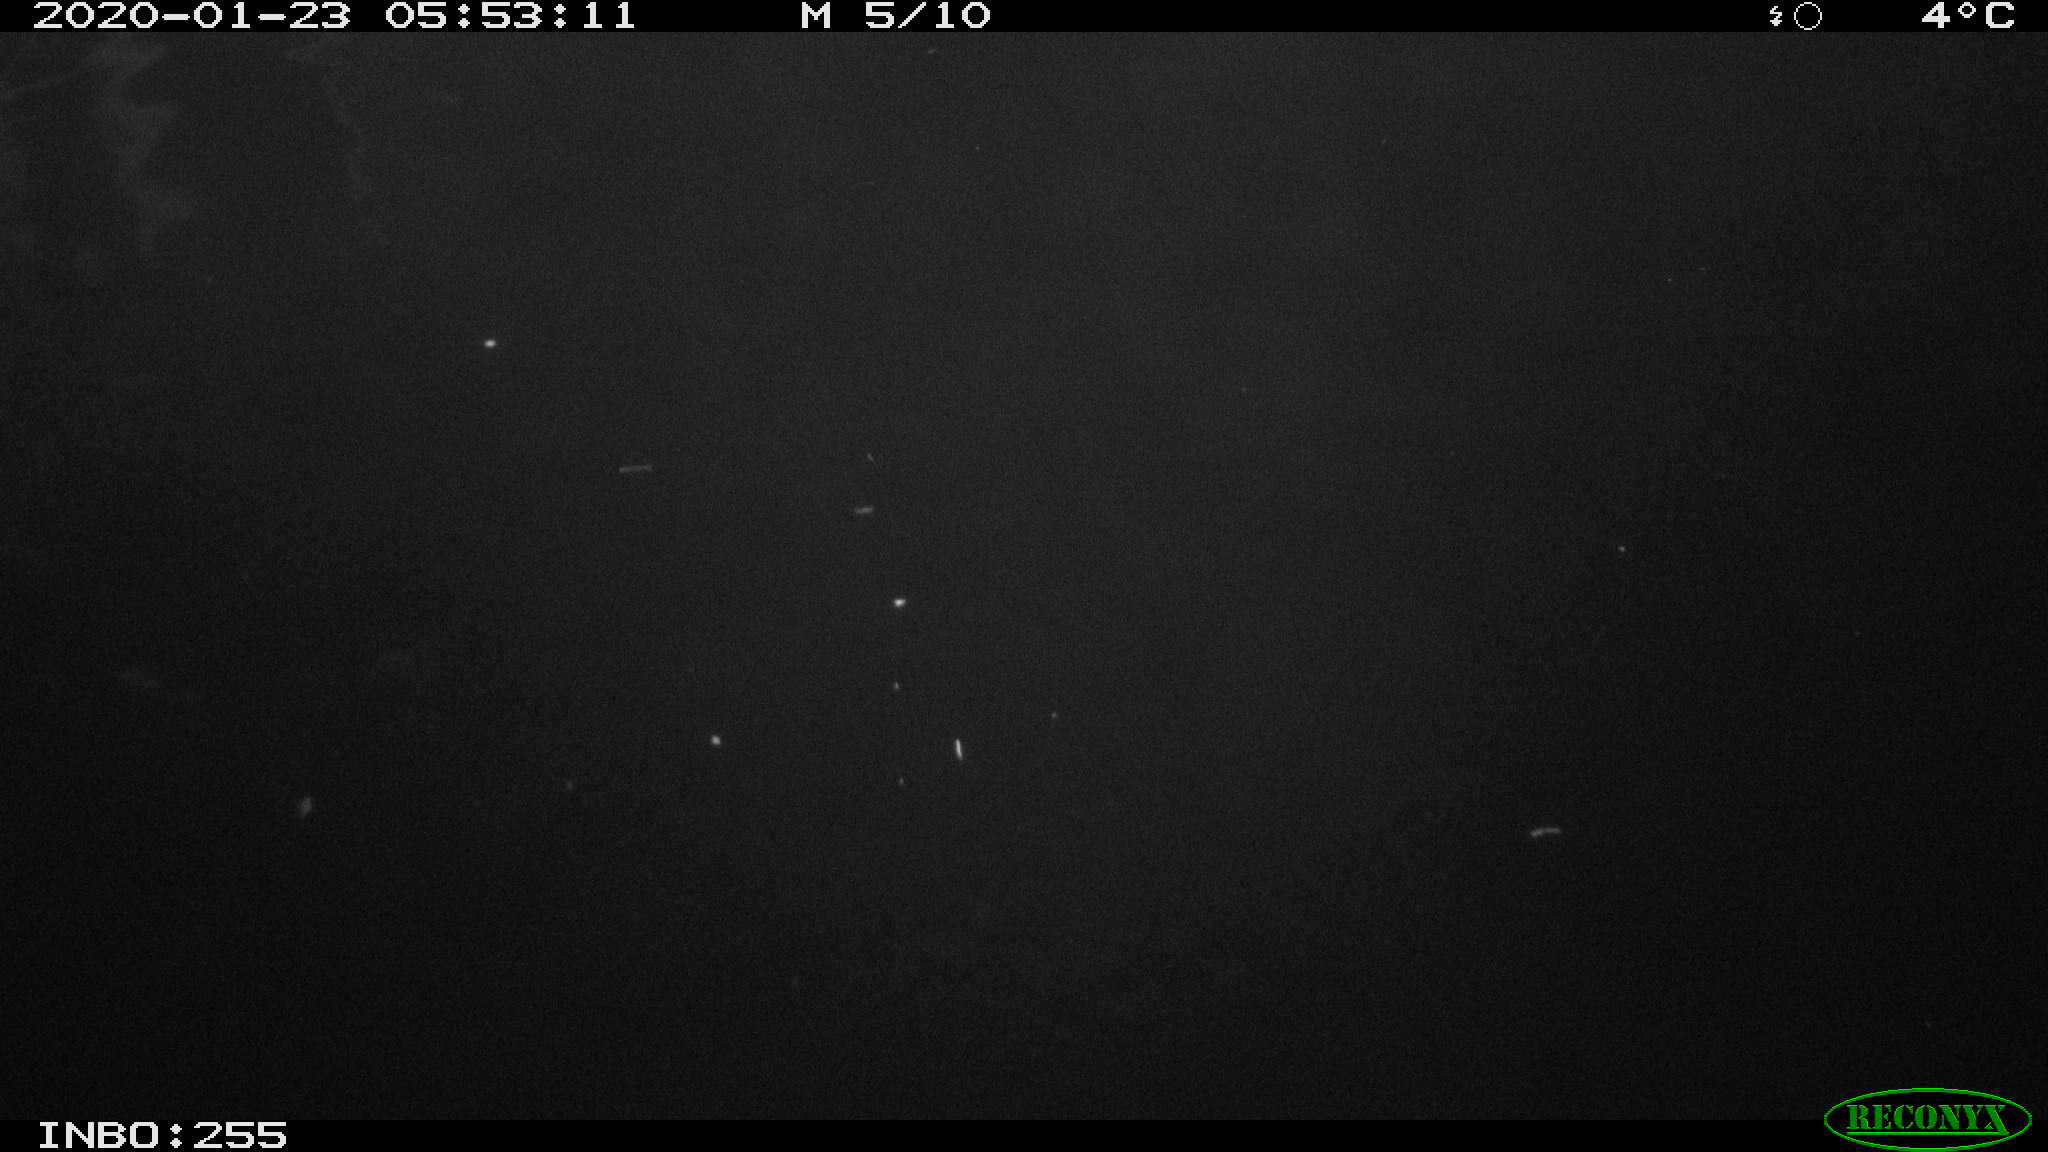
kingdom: Animalia
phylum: Chordata
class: Mammalia
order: Rodentia
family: Cricetidae
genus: Ondatra
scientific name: Ondatra zibethicus
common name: Muskrat
